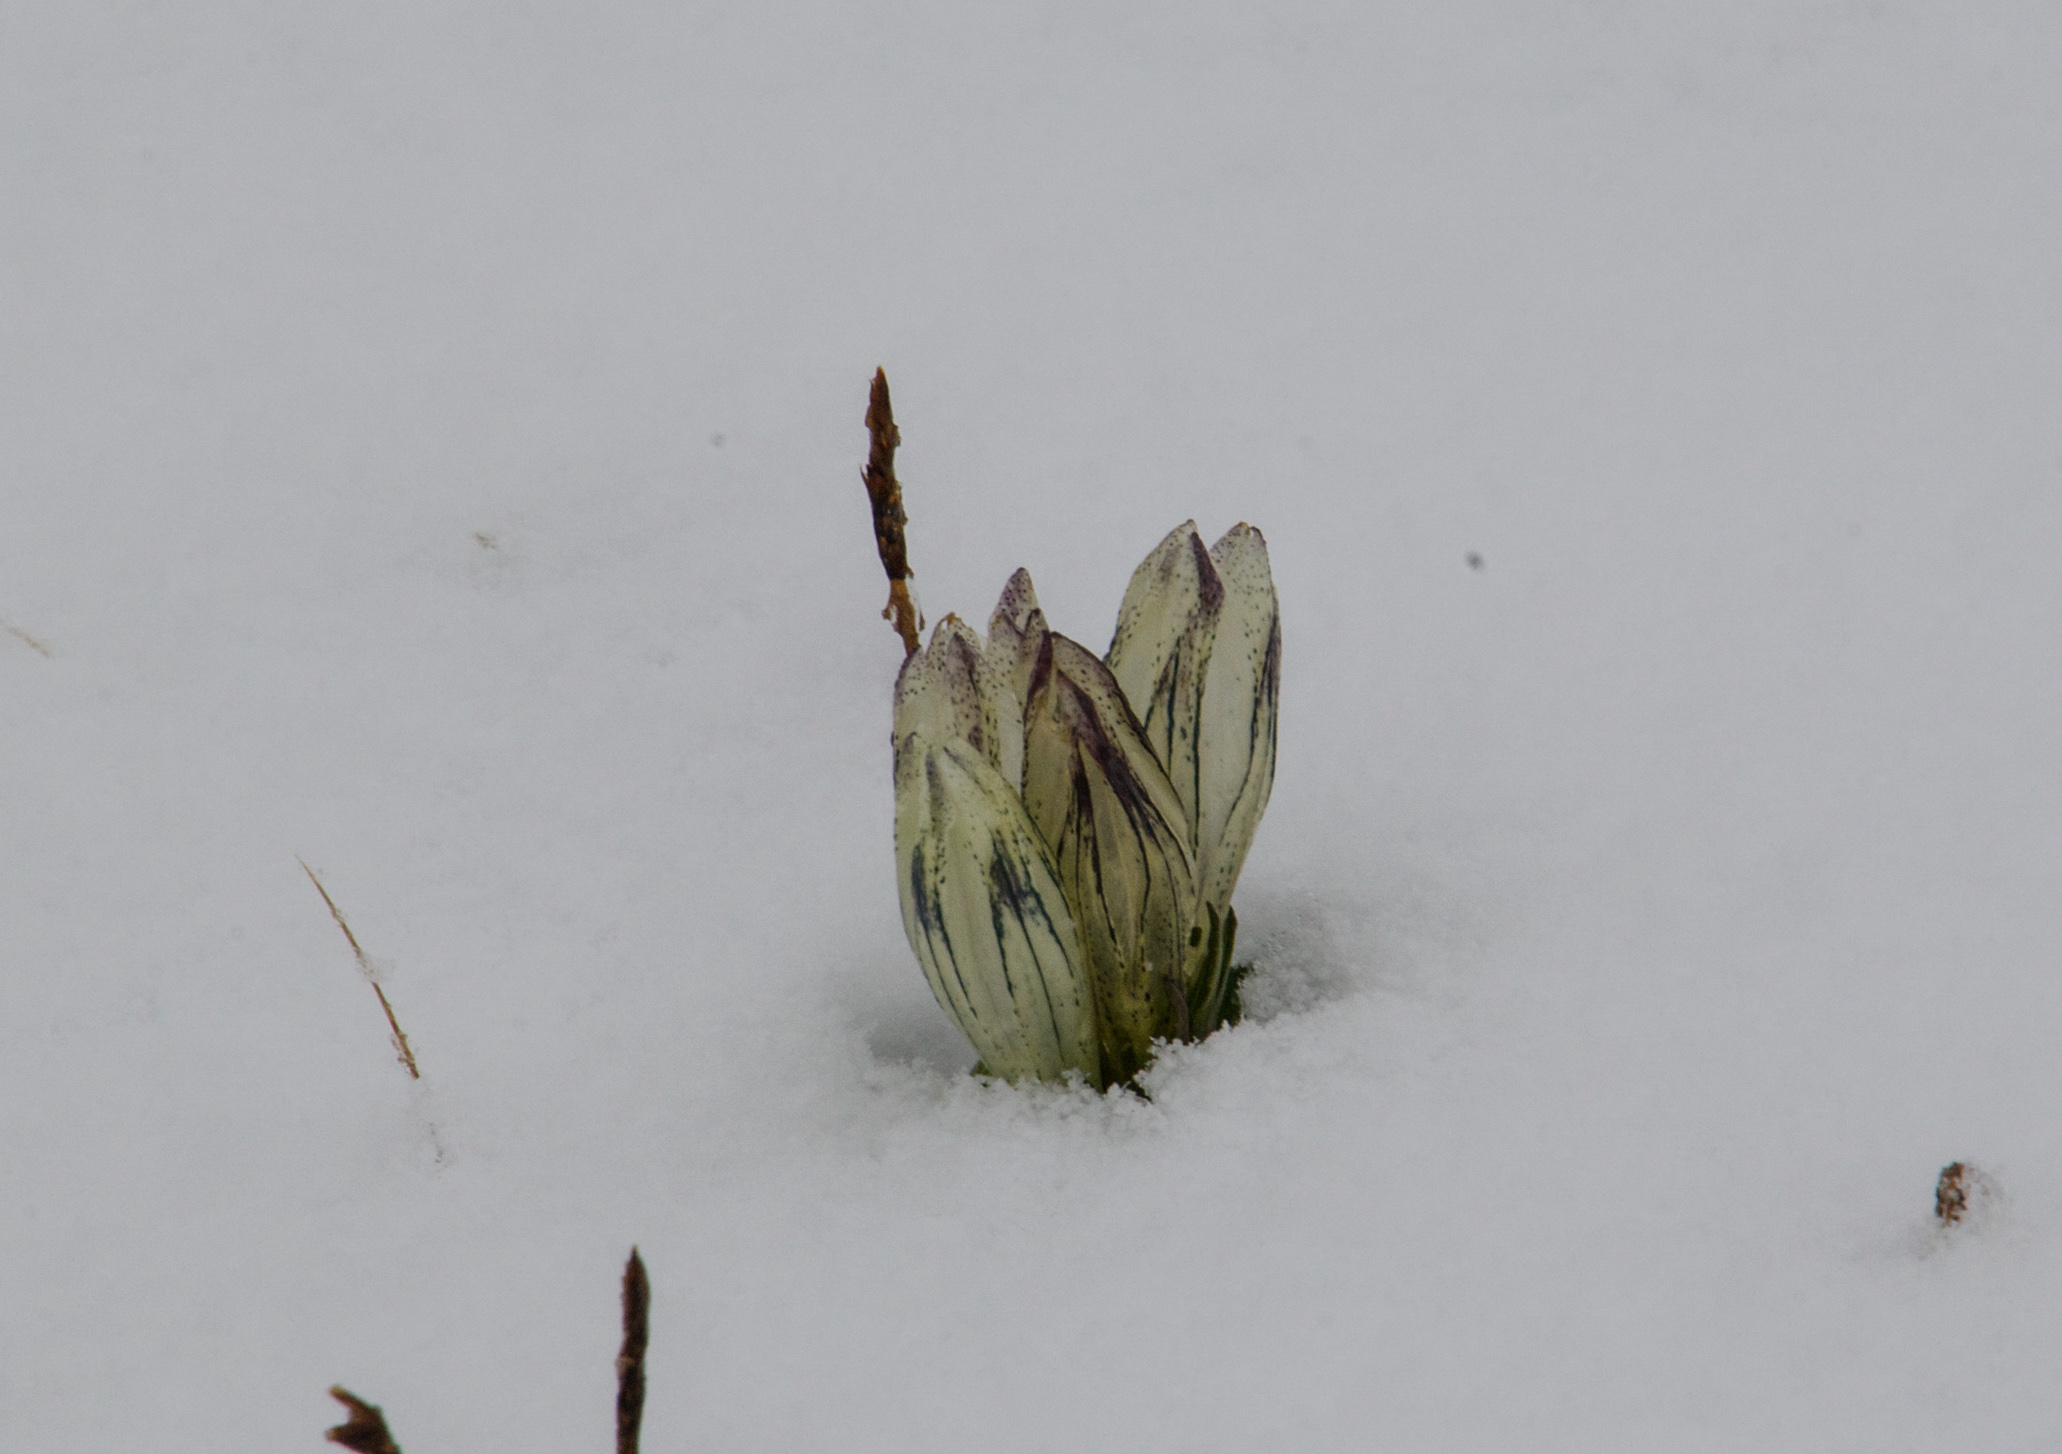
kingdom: Plantae
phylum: Tracheophyta
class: Magnoliopsida
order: Gentianales
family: Gentianaceae
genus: Gentiana
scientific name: Gentiana algida
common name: Arctic gentian
